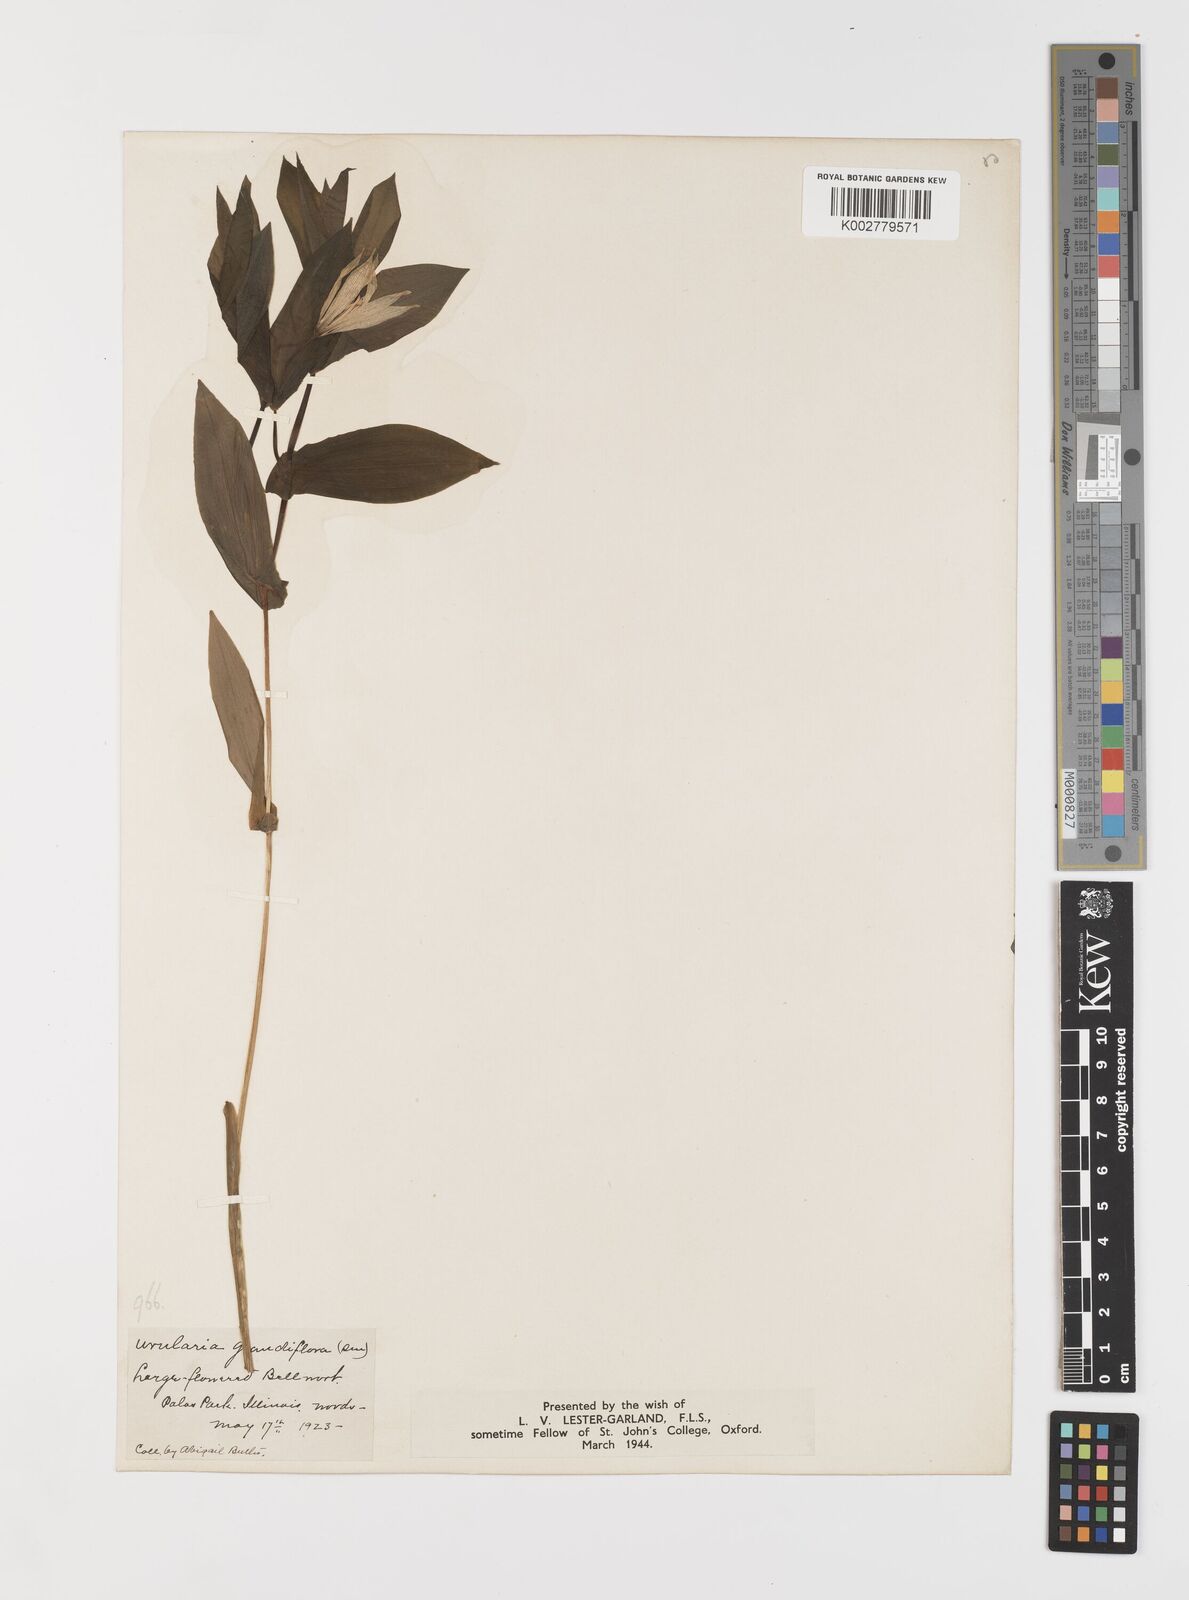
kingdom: Plantae
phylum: Tracheophyta
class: Liliopsida
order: Liliales
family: Colchicaceae
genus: Uvularia
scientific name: Uvularia grandiflora
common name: Bellwort
